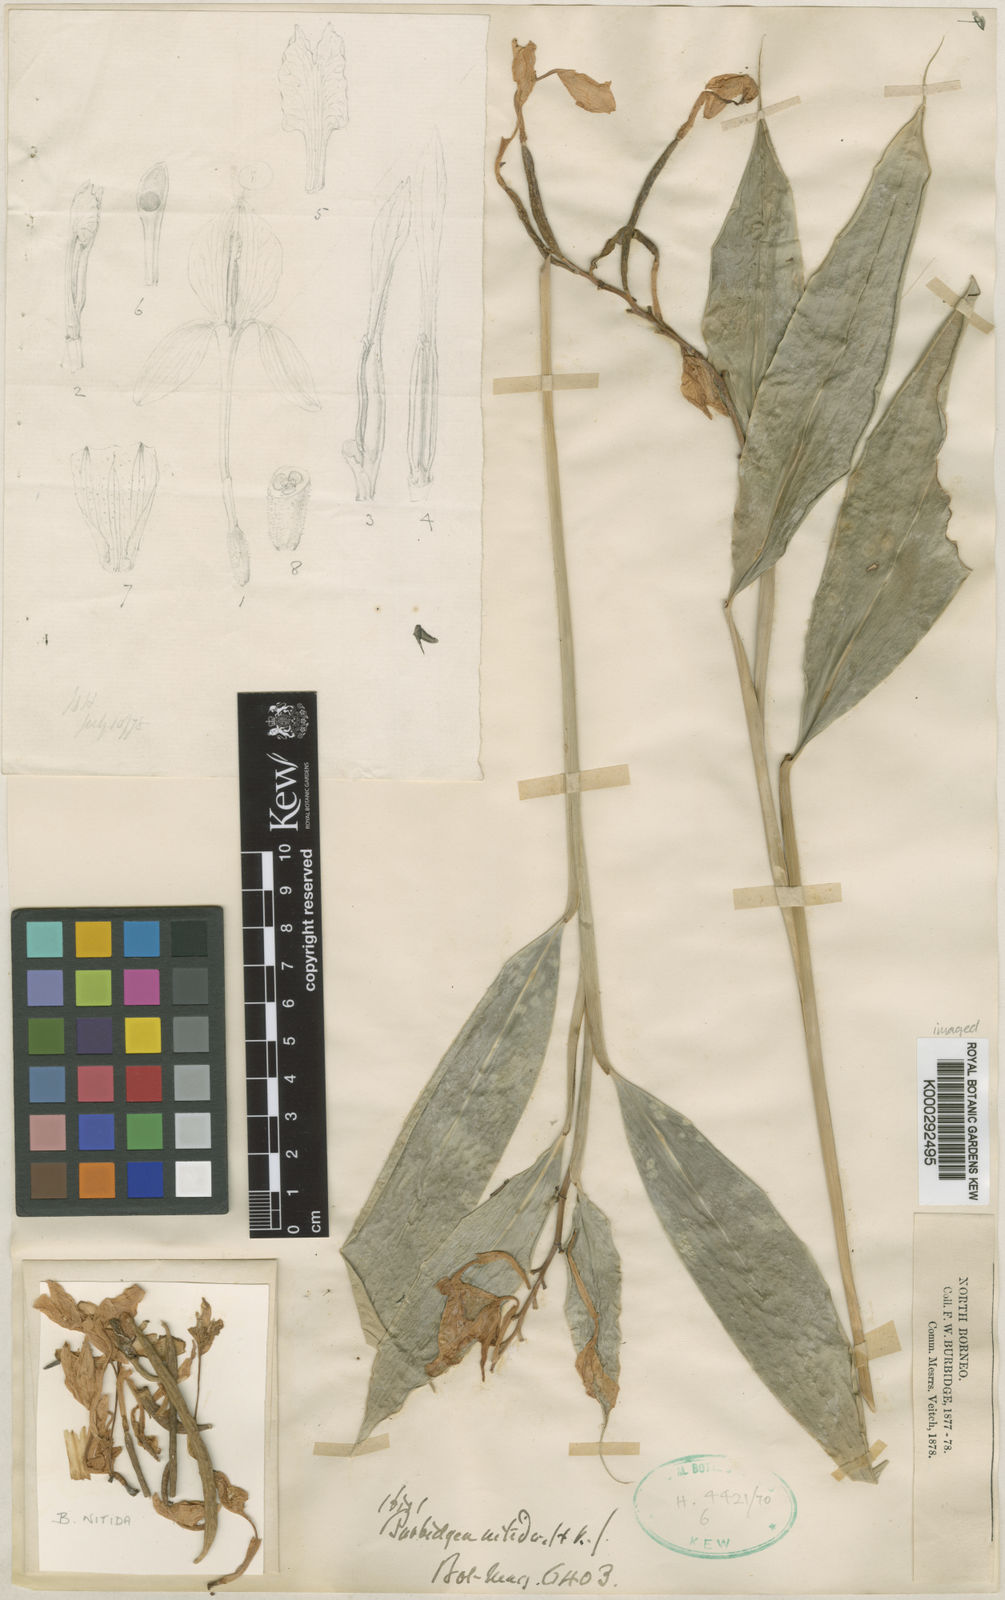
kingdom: Plantae
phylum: Tracheophyta
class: Liliopsida
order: Zingiberales
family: Zingiberaceae
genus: Burbidgea
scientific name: Burbidgea nitida
